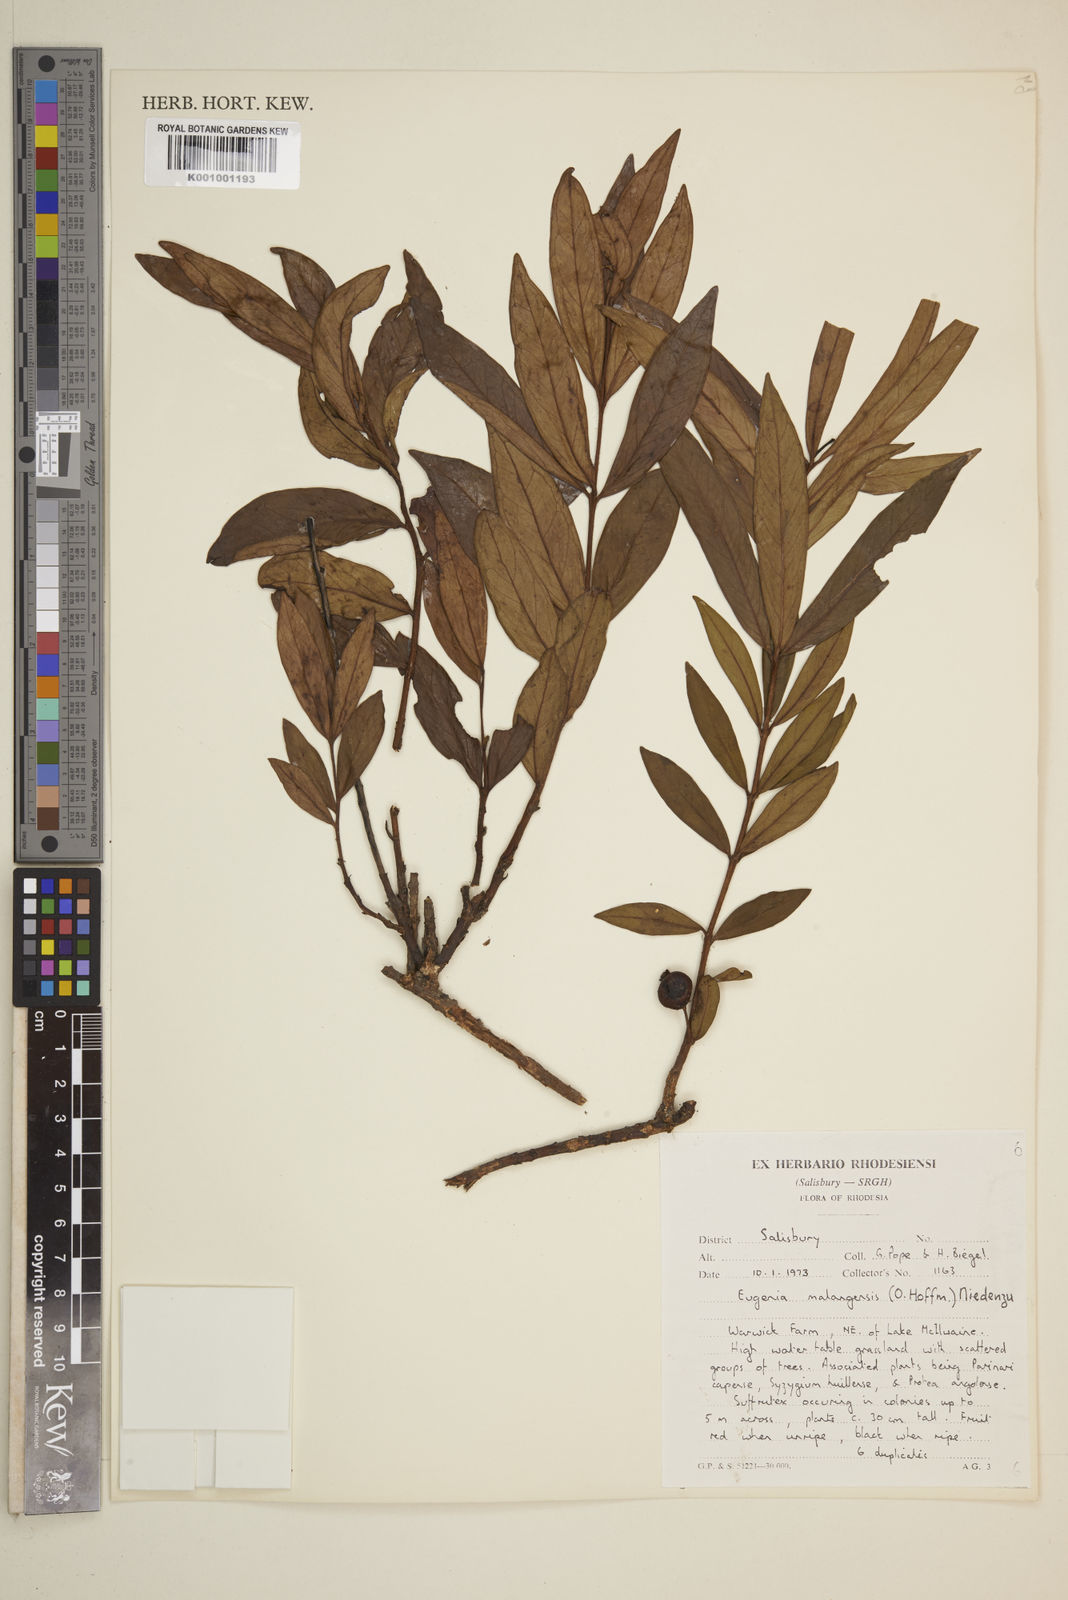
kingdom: Plantae
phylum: Tracheophyta
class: Magnoliopsida
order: Myrtales
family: Myrtaceae
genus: Eugenia
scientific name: Eugenia malangensis
